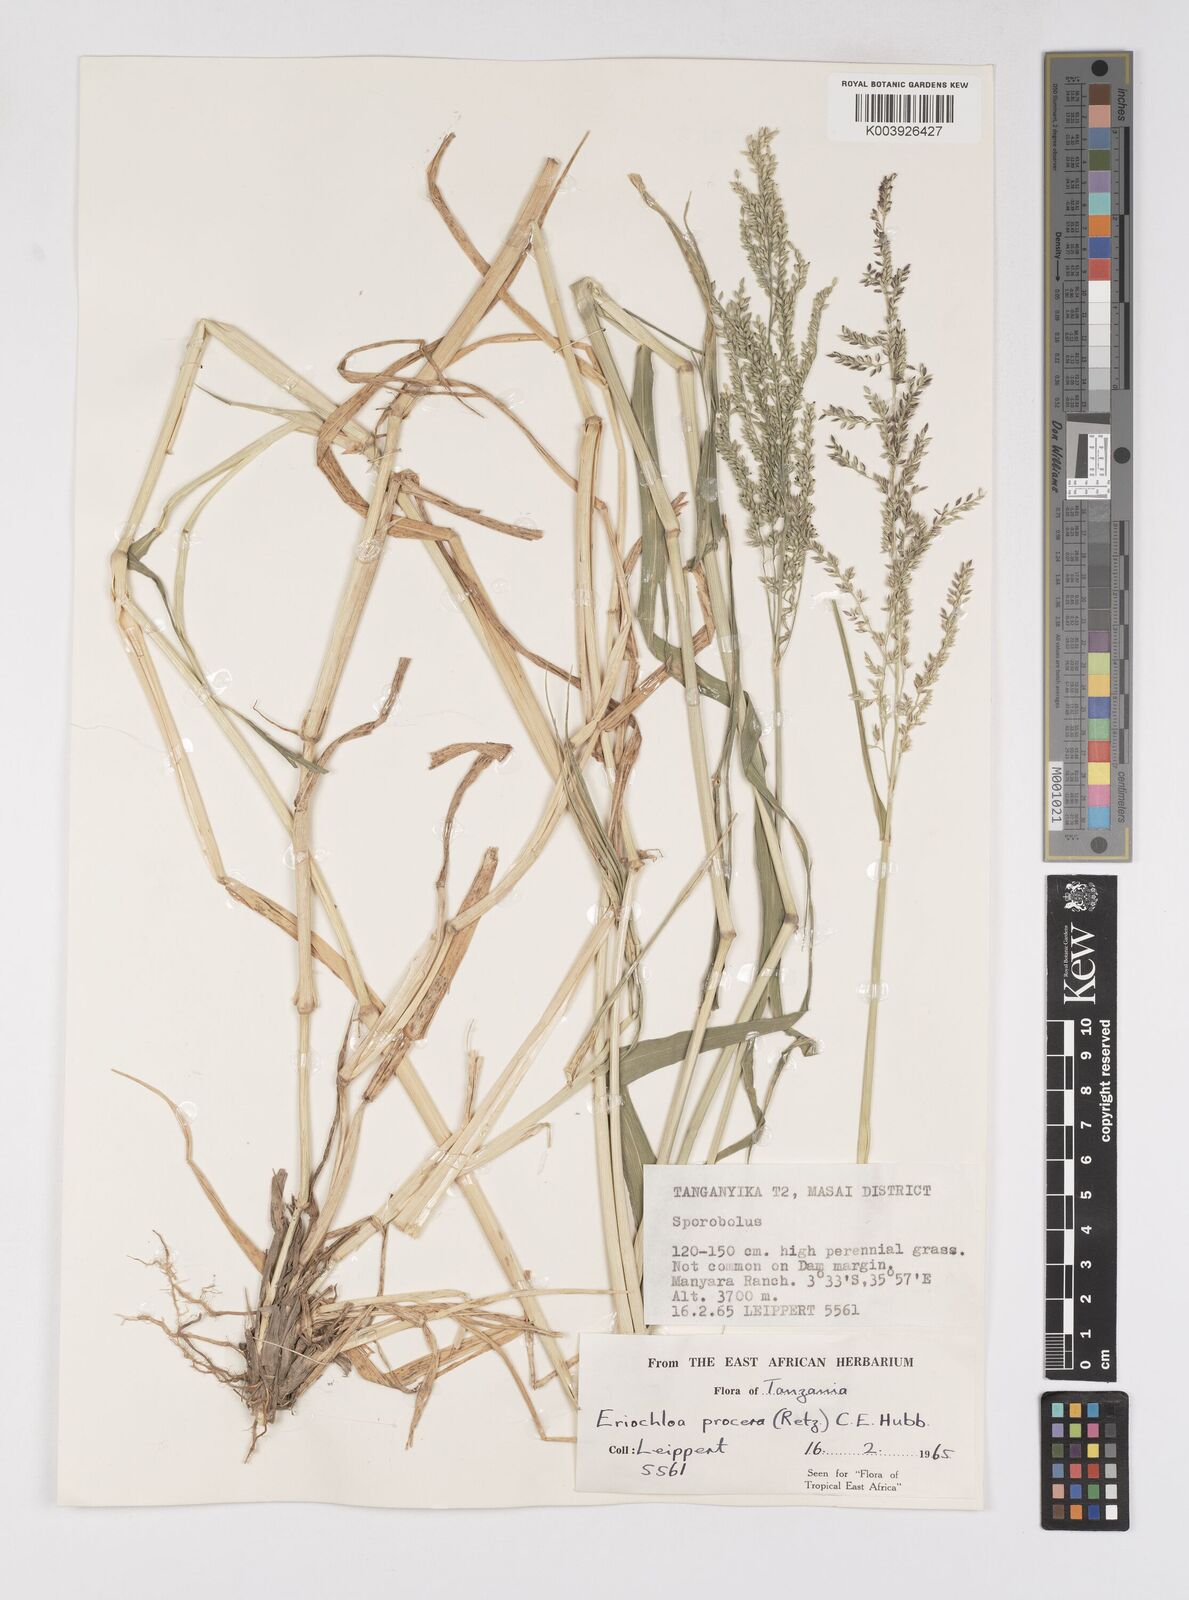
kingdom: Plantae
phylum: Tracheophyta
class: Liliopsida
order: Poales
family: Poaceae
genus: Eriochloa
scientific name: Eriochloa meyeriana
